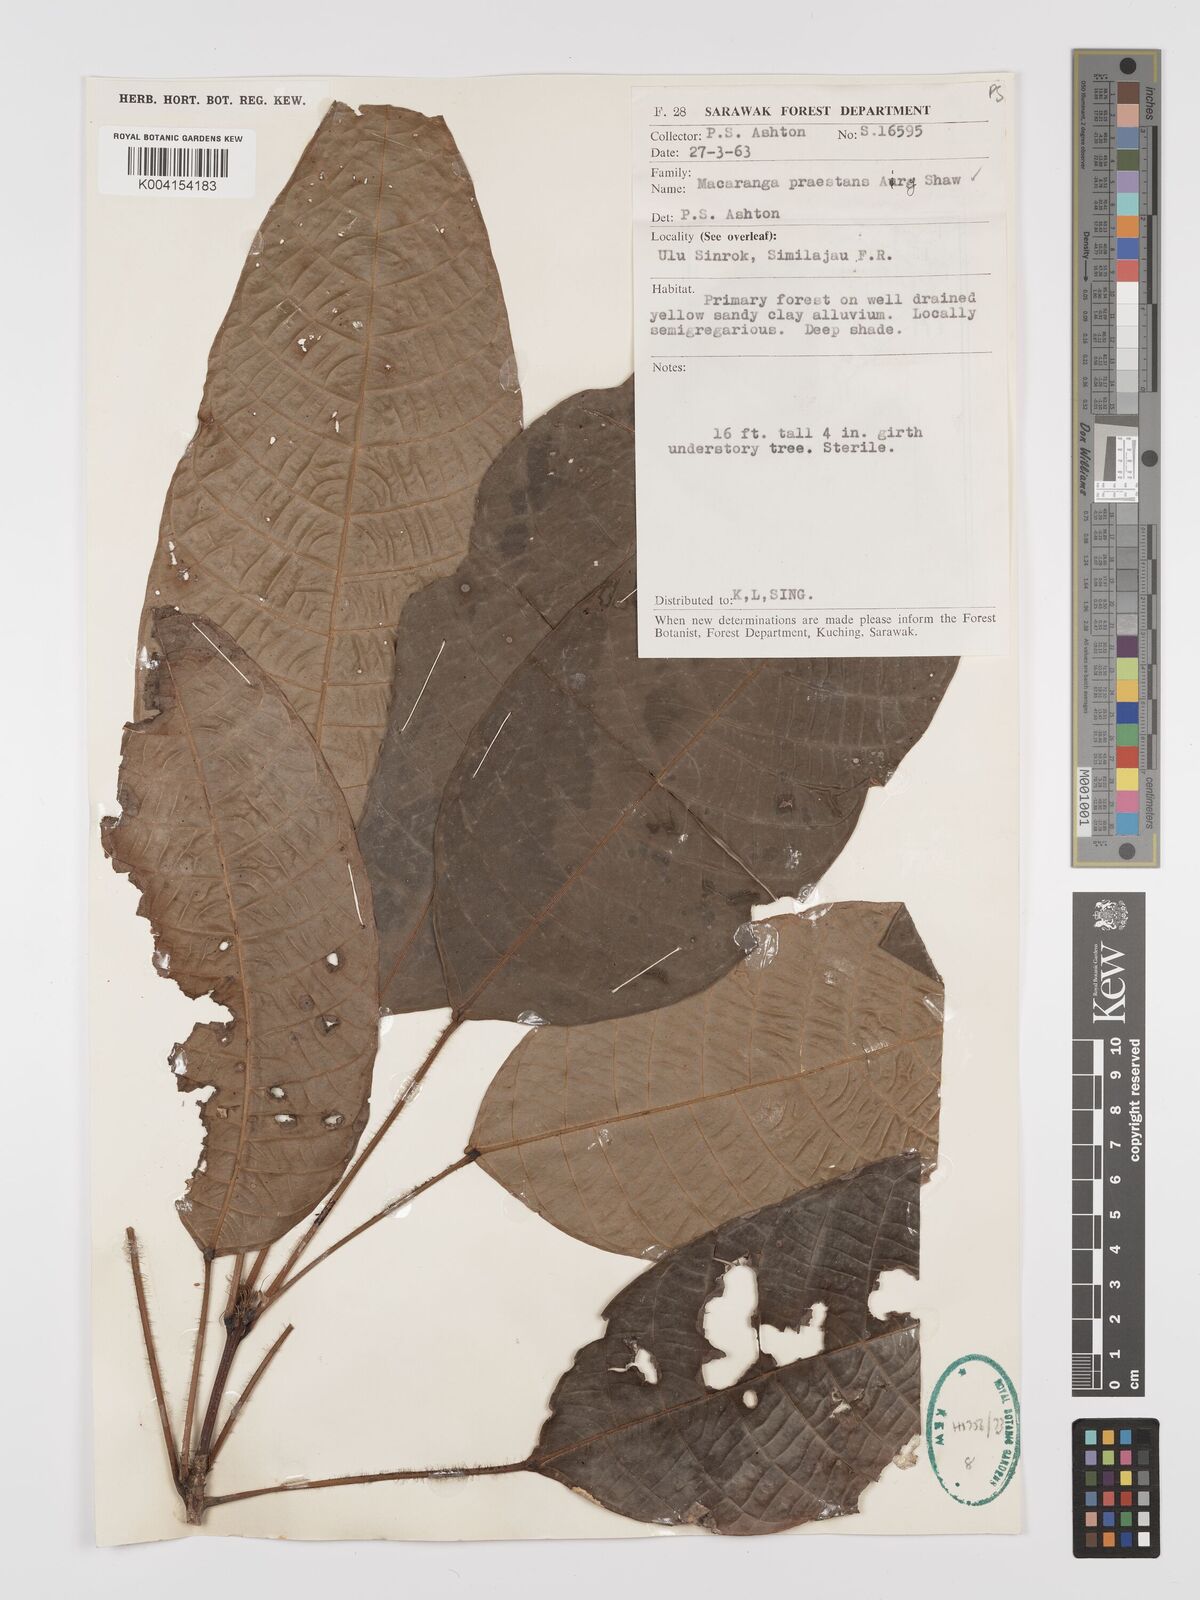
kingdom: Plantae
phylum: Tracheophyta
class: Magnoliopsida
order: Malpighiales
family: Euphorbiaceae
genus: Macaranga
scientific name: Macaranga praestans
